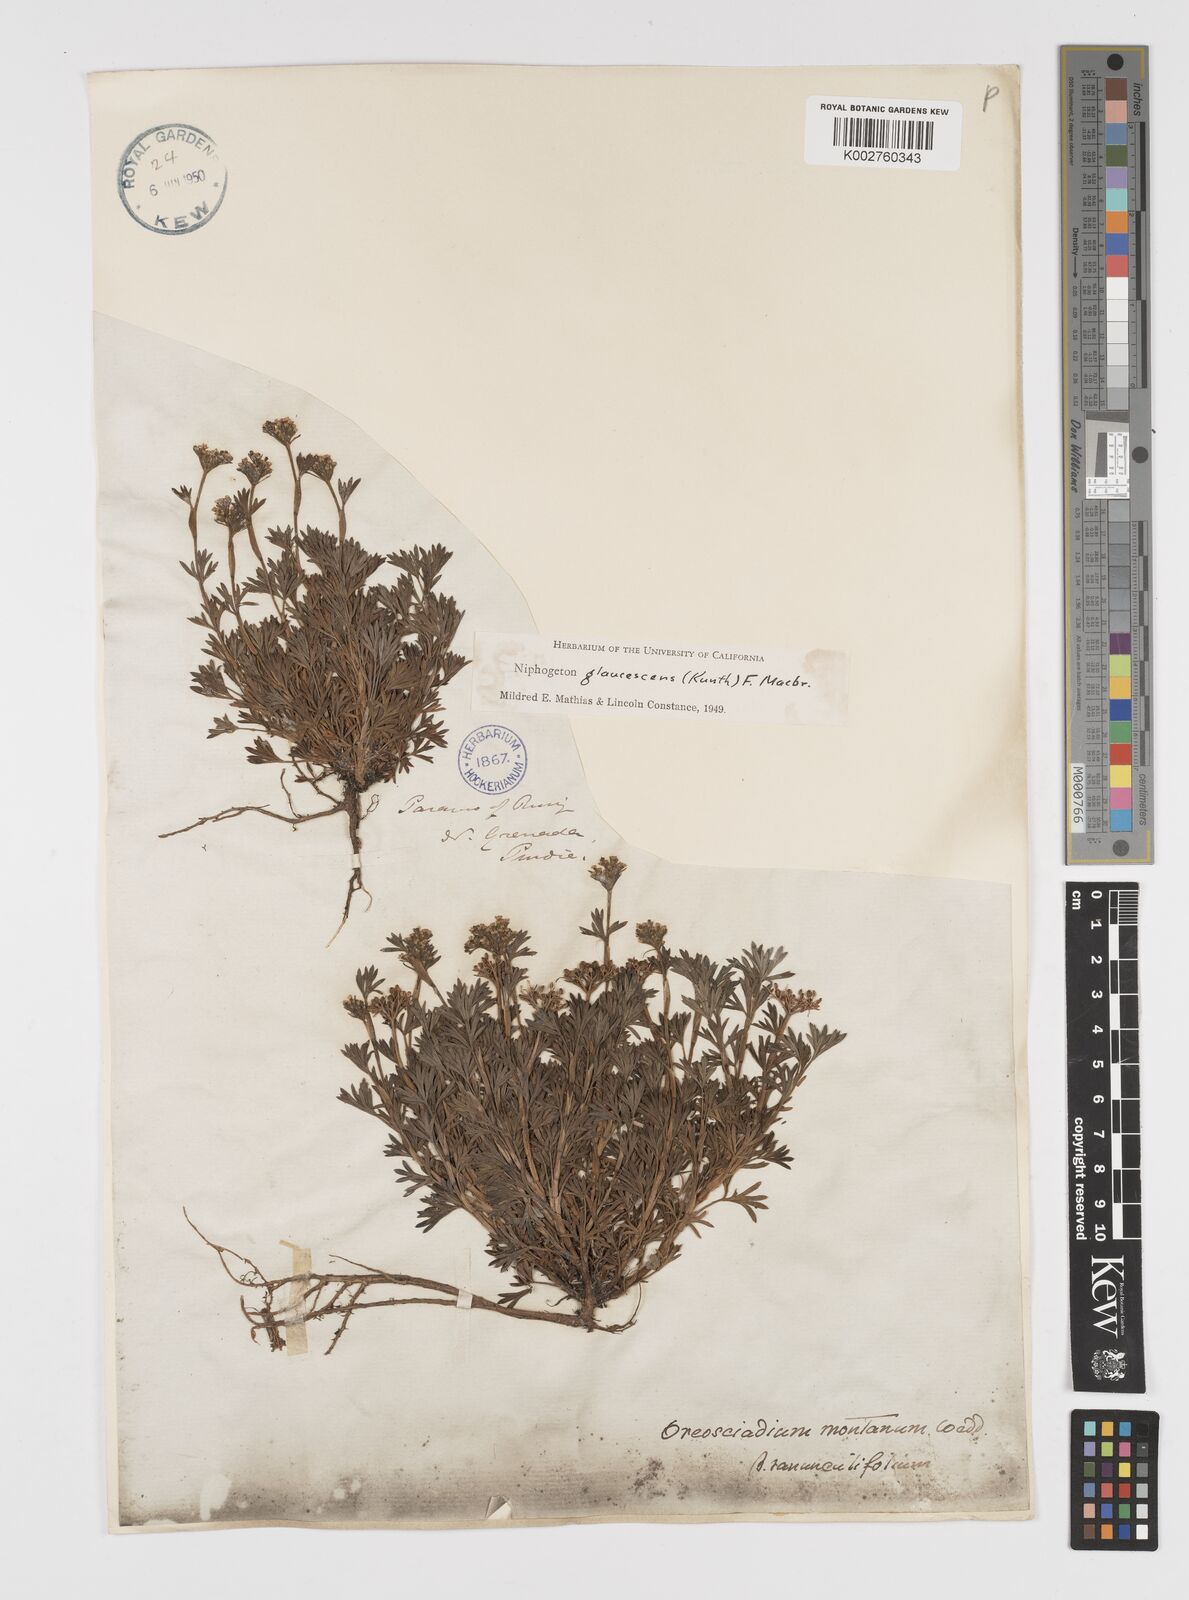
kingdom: Plantae
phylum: Tracheophyta
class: Magnoliopsida
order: Apiales
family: Apiaceae
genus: Niphogeton
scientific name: Niphogeton glaucescens
